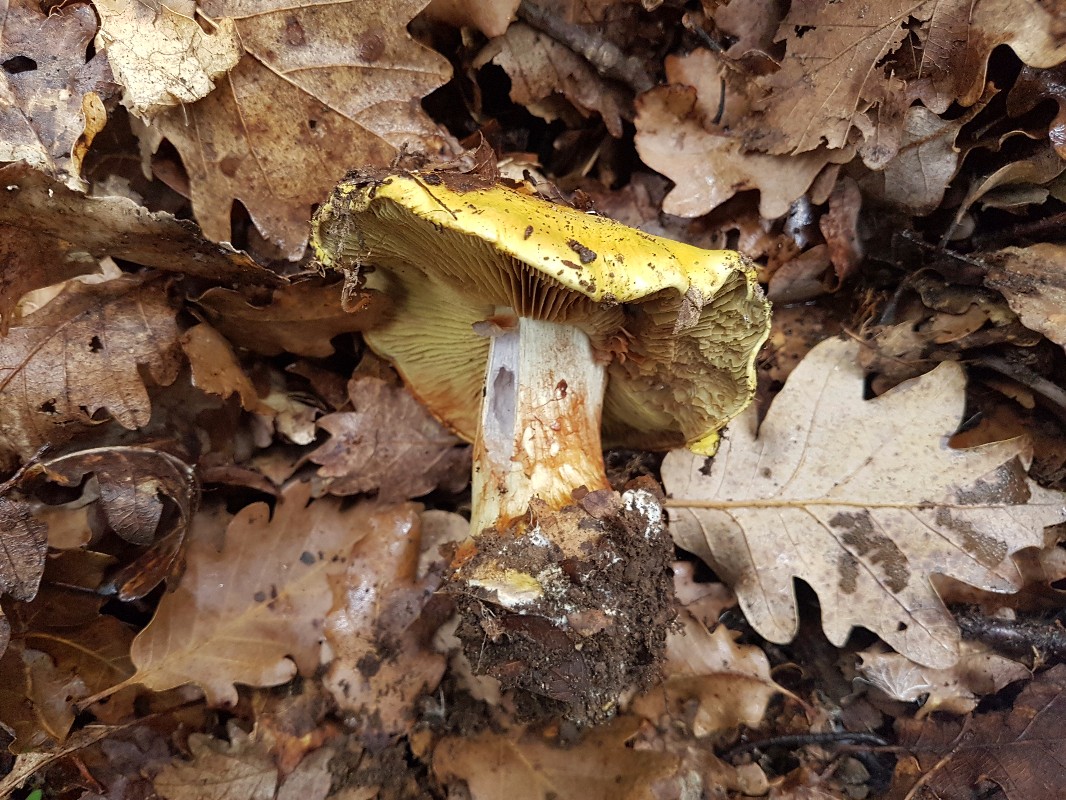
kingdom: Fungi
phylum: Basidiomycota
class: Agaricomycetes
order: Agaricales
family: Cortinariaceae
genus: Cortinarius
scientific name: Cortinarius bergeronii
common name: prægtig slørhat
